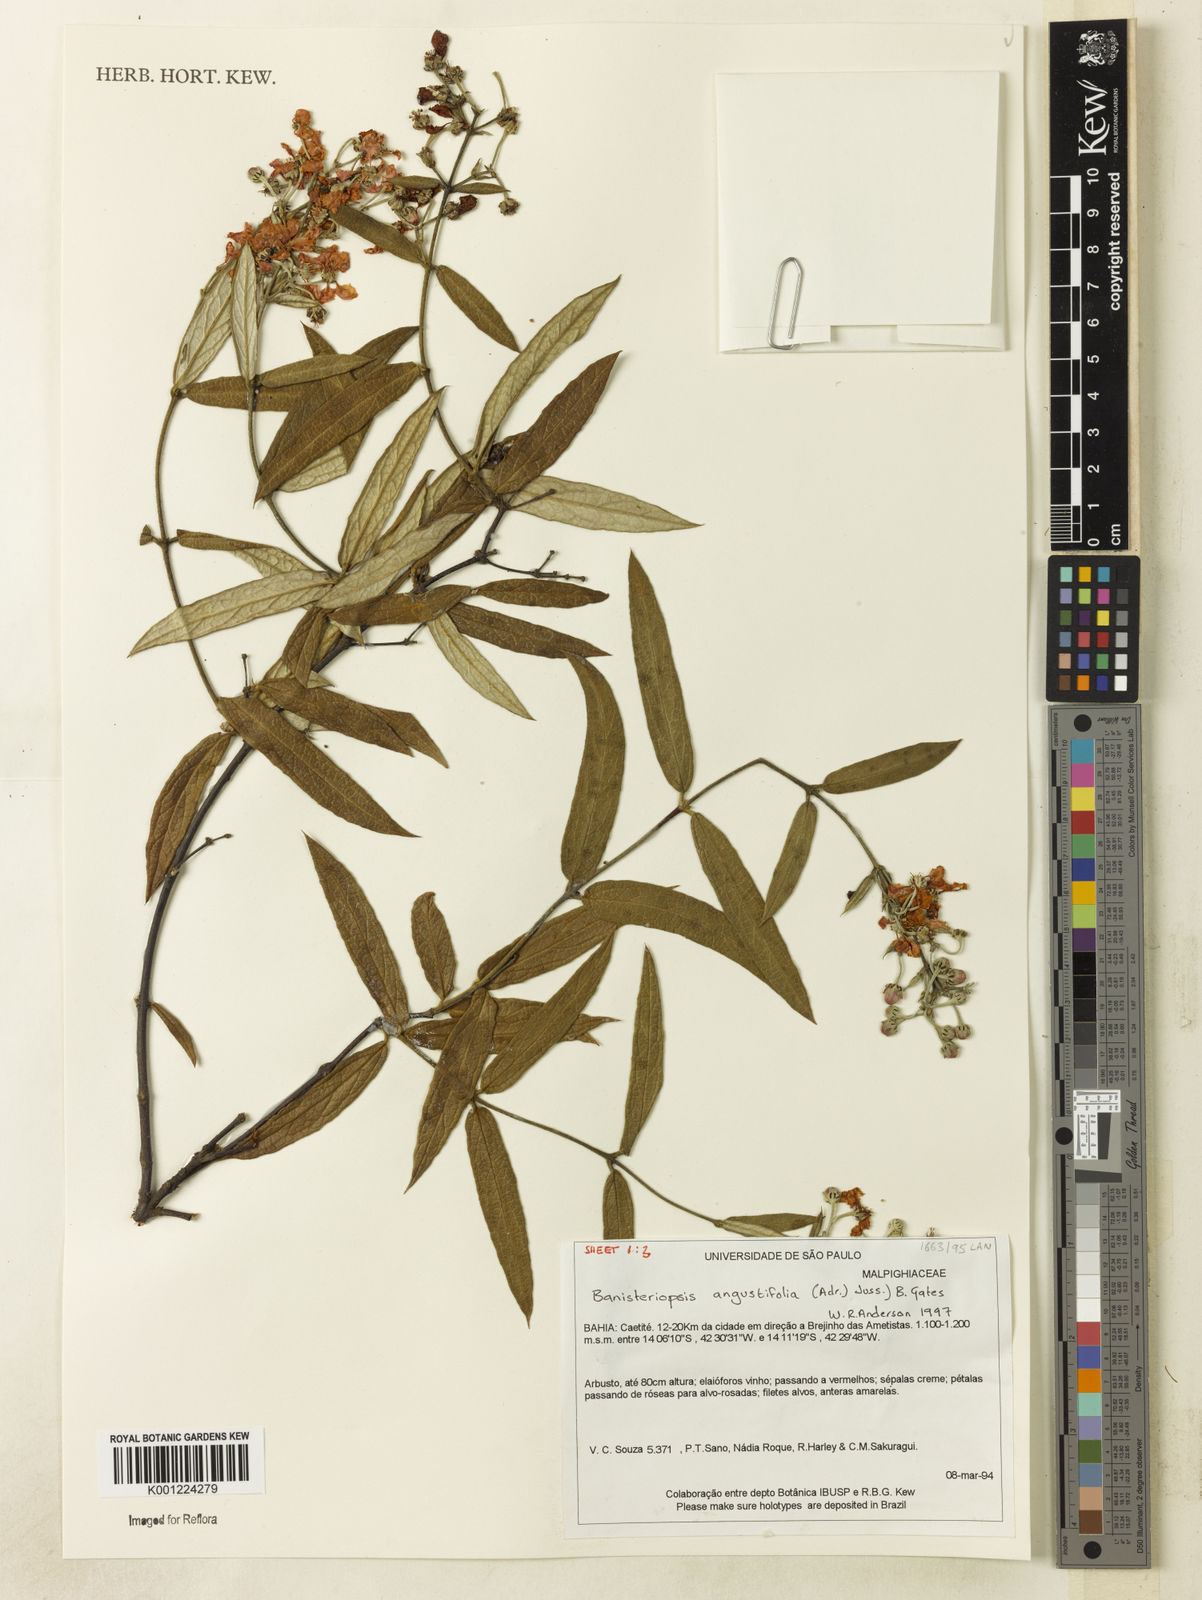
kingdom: Plantae
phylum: Tracheophyta
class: Magnoliopsida
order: Malpighiales
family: Malpighiaceae
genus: Banisteriopsis
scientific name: Banisteriopsis angustifolia
